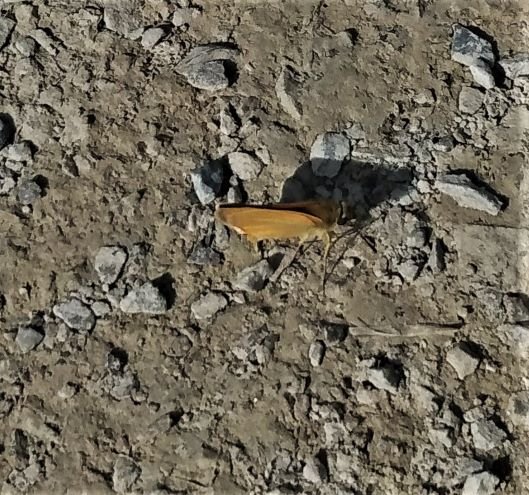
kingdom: Animalia
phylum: Arthropoda
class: Insecta
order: Lepidoptera
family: Hesperiidae
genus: Thymelicus
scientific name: Thymelicus lineola
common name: European Skipper
